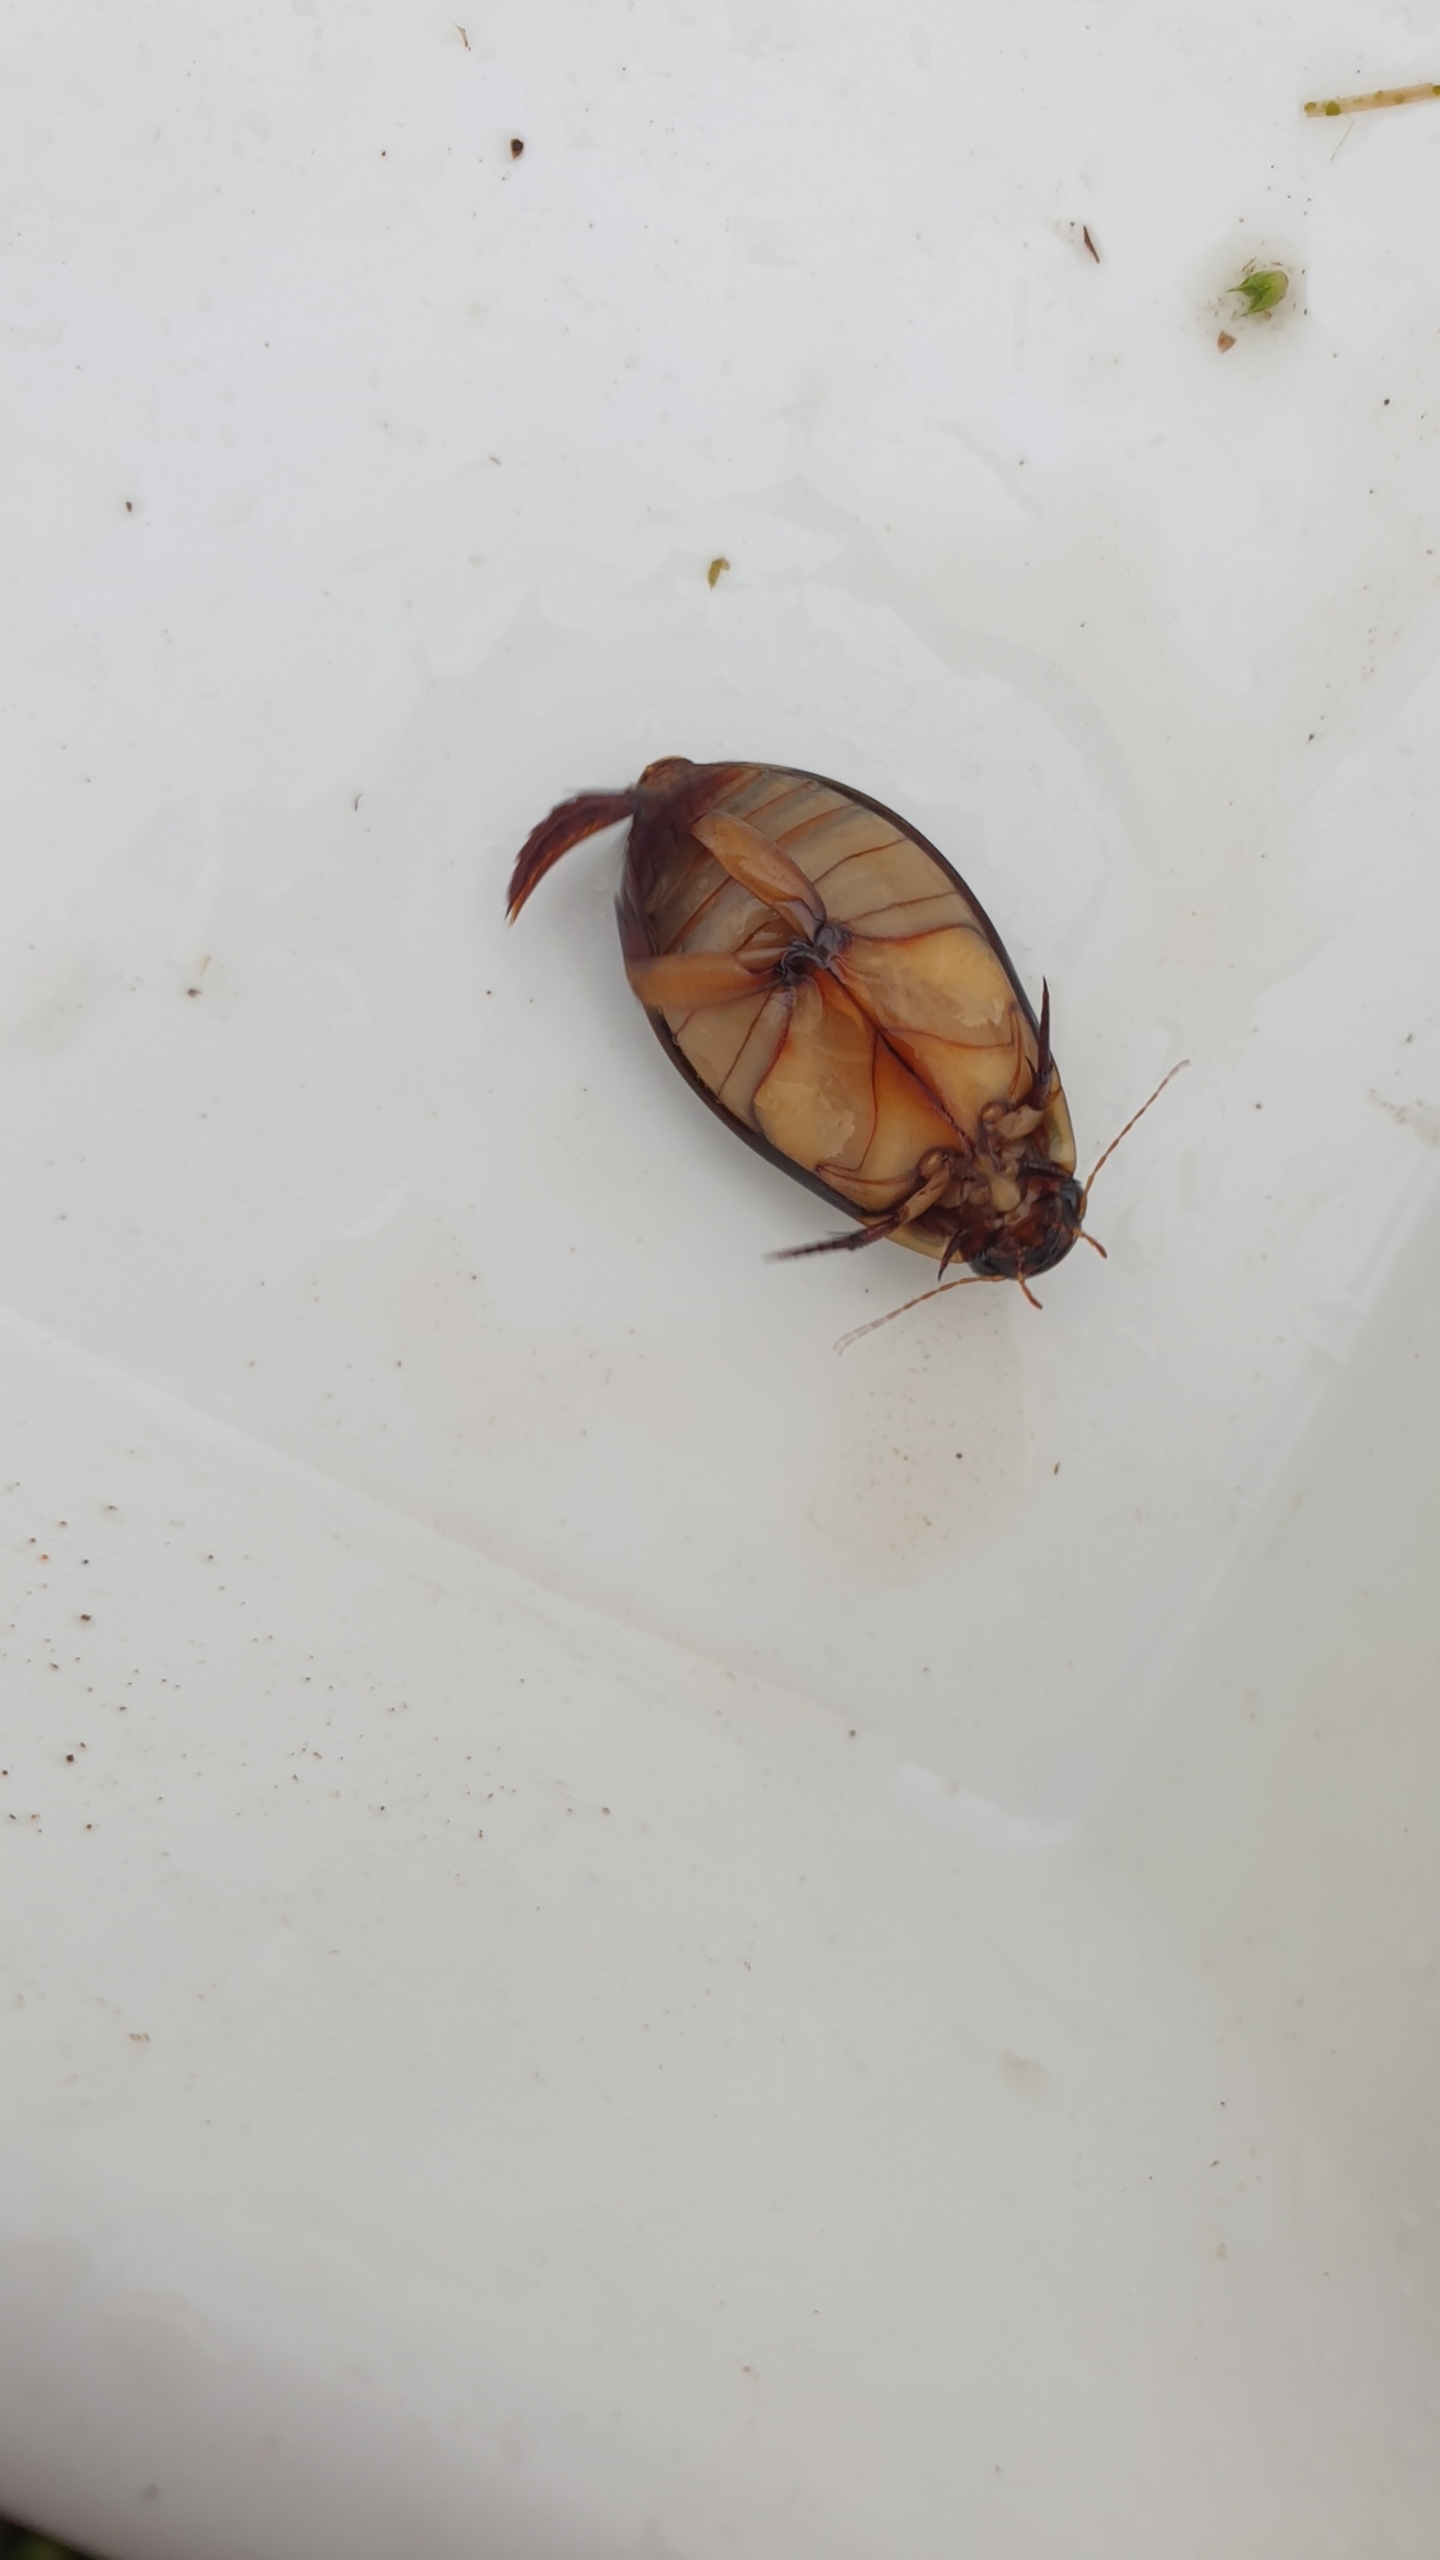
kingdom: Animalia
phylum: Arthropoda
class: Insecta
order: Coleoptera
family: Dytiscidae
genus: Cybister
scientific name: Cybister lateralimarginalis
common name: Dykkervandkalv
